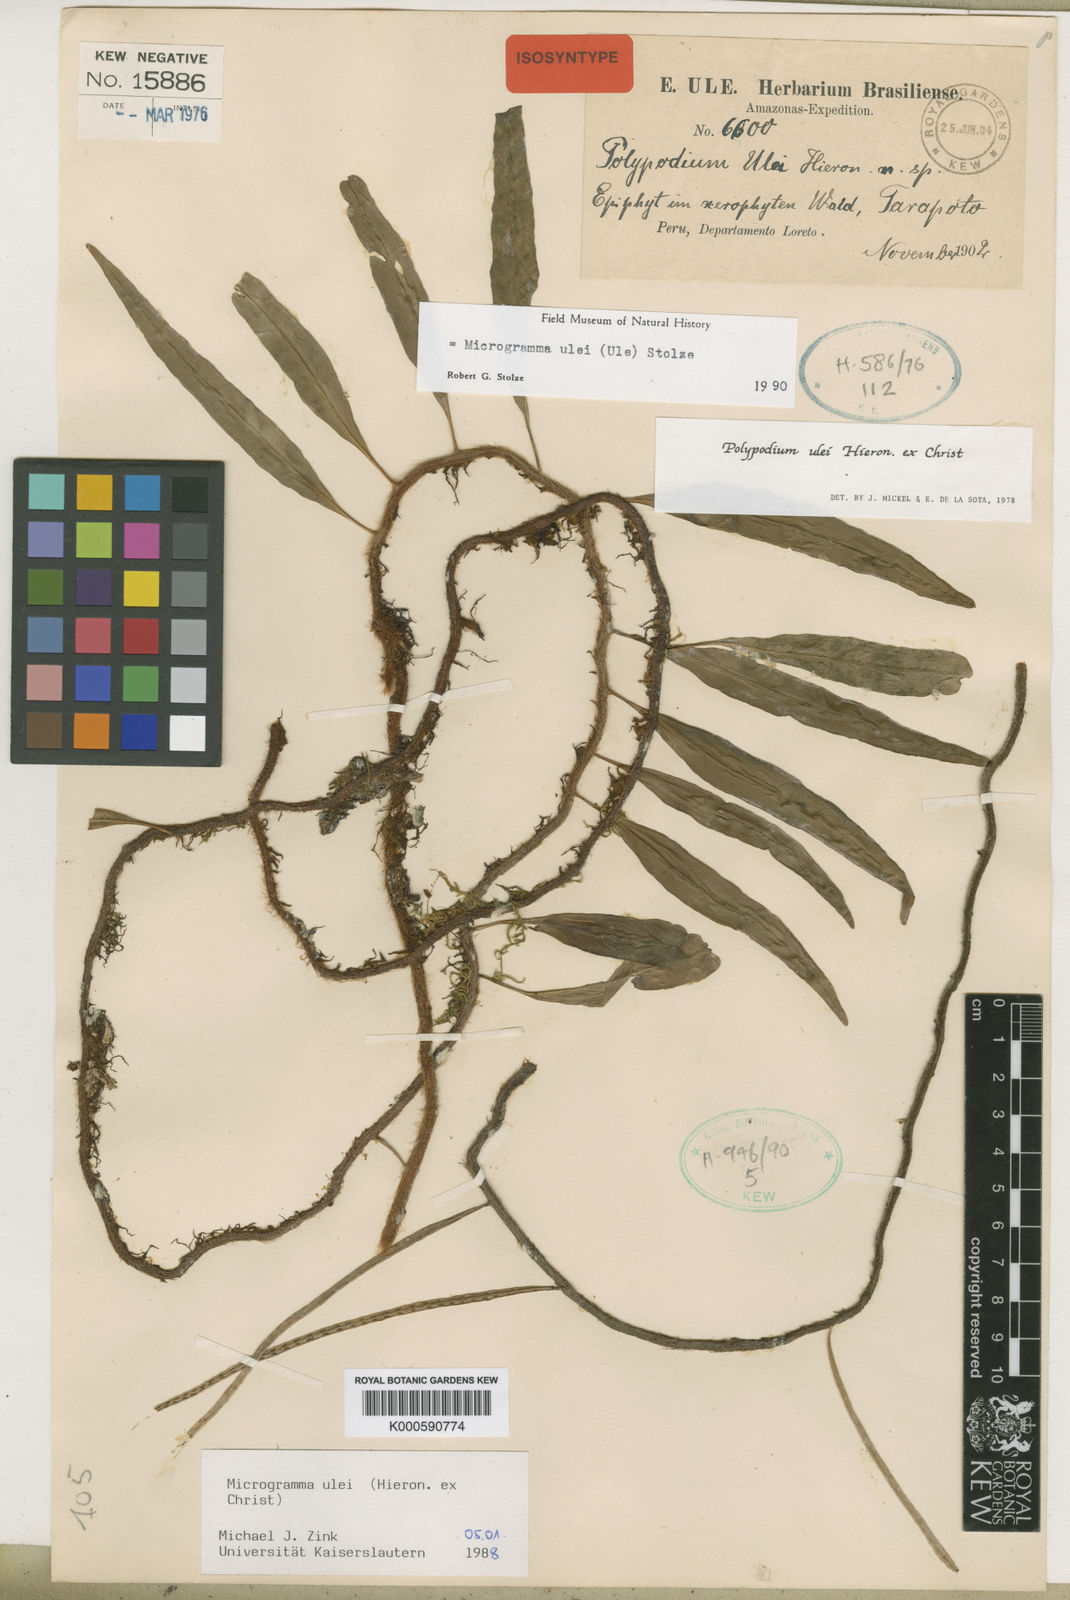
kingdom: Plantae
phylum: Tracheophyta
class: Polypodiopsida
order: Polypodiales
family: Polypodiaceae
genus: Microgramma
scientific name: Microgramma ulei
